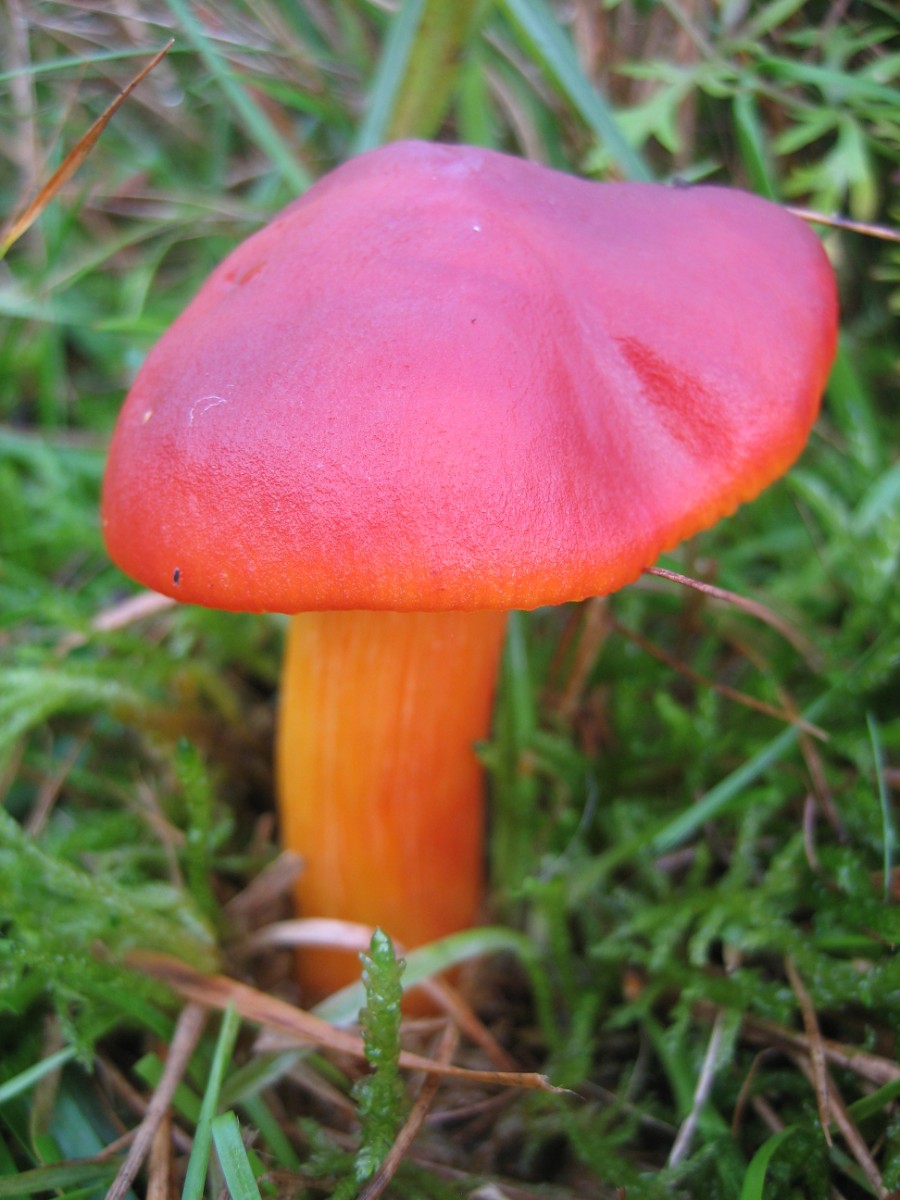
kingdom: Fungi
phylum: Basidiomycota
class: Agaricomycetes
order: Agaricales
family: Hygrophoraceae
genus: Hygrocybe
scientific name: Hygrocybe punicea
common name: skarlagen-vokshat
